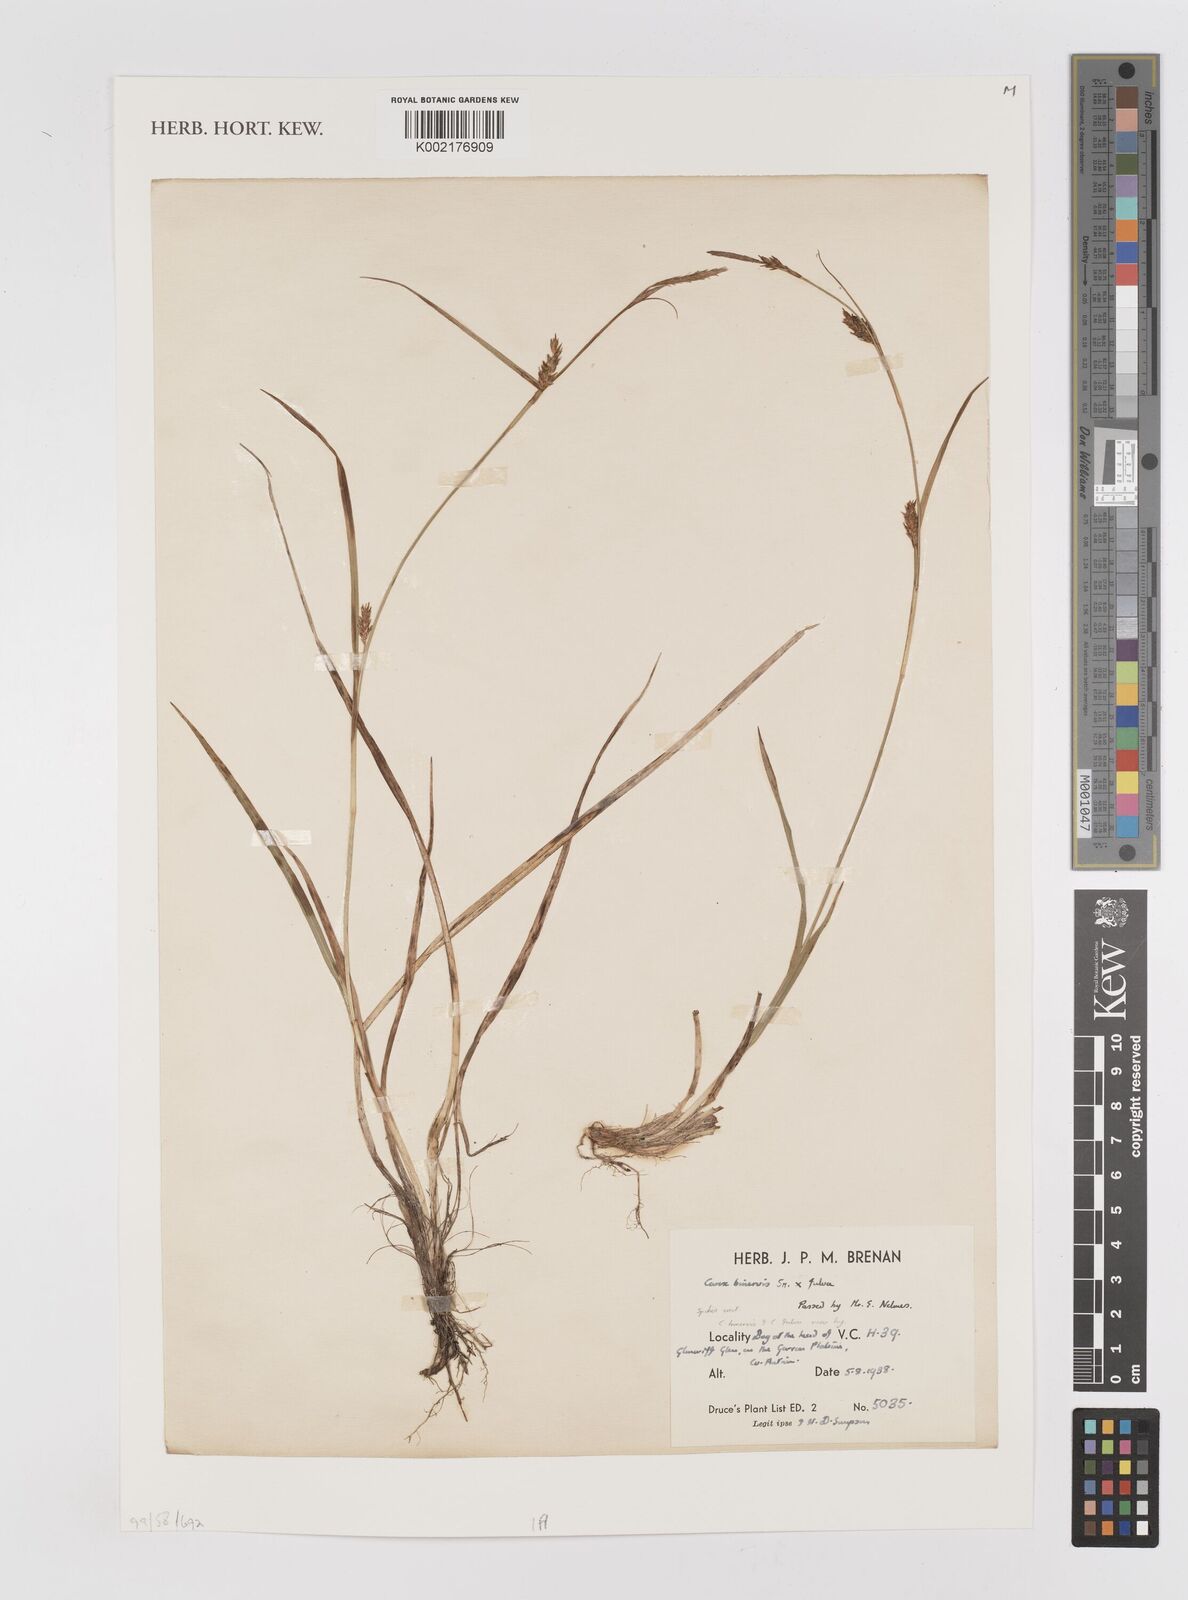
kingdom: Plantae
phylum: Tracheophyta
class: Liliopsida
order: Poales
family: Cyperaceae
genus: Carex
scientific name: Carex binervis
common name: Green-ribbed sedge
